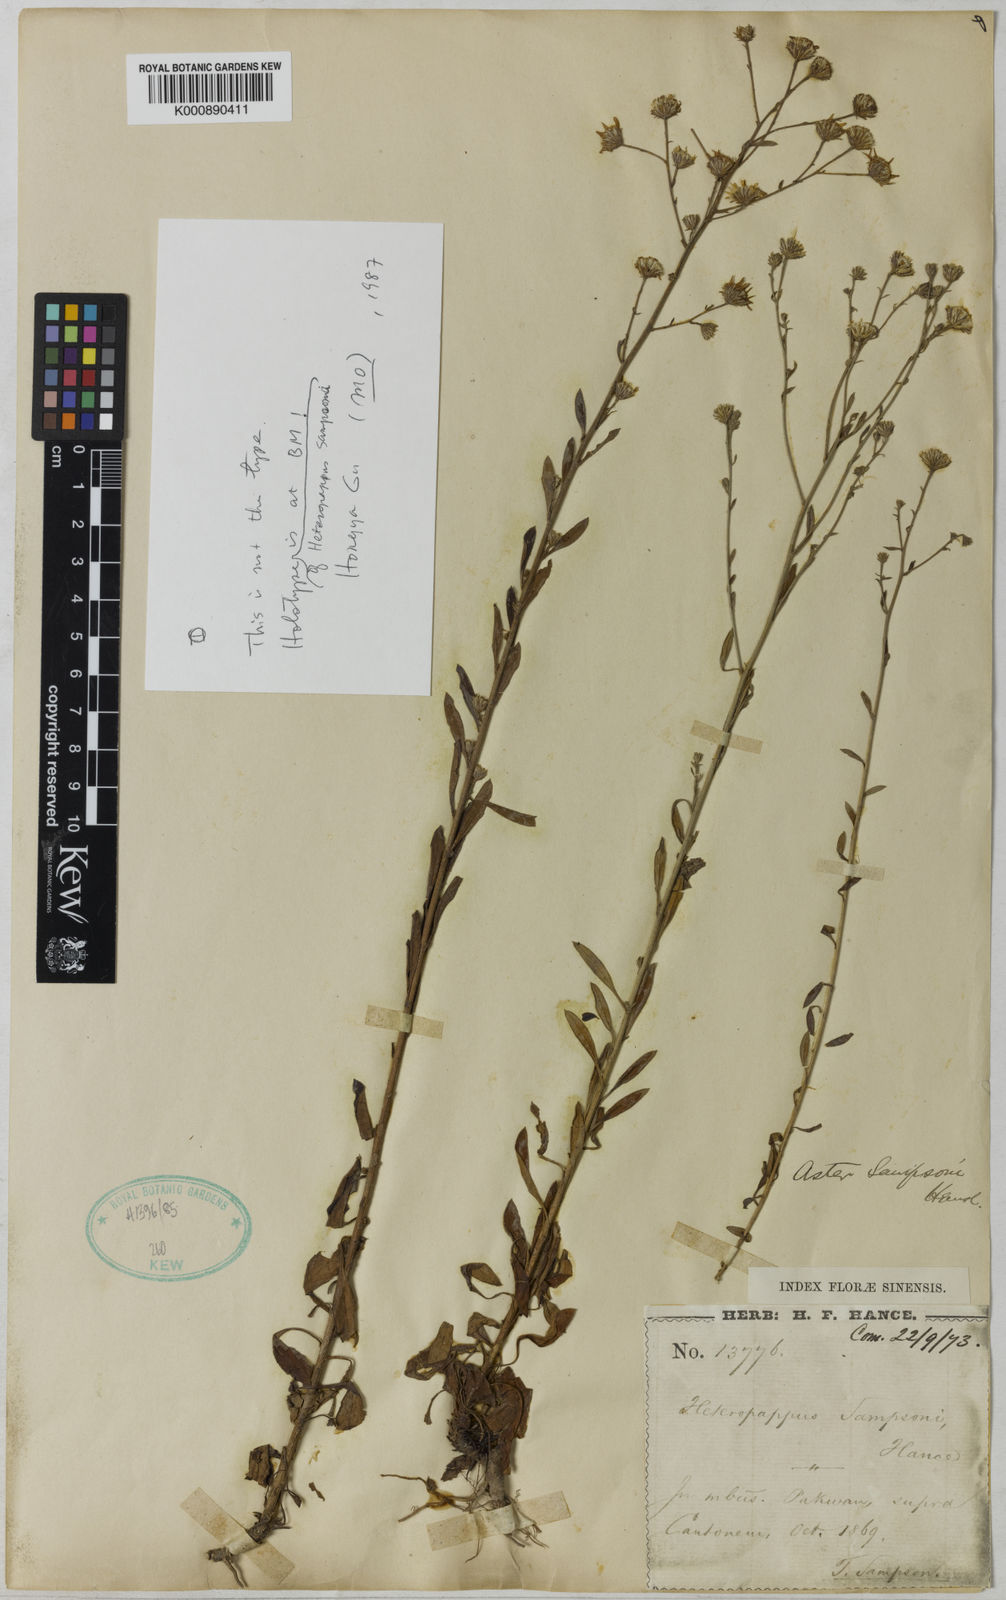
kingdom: Plantae
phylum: Tracheophyta
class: Magnoliopsida
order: Asterales
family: Asteraceae
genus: Heteropappus
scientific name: Heteropappus sampsonii
